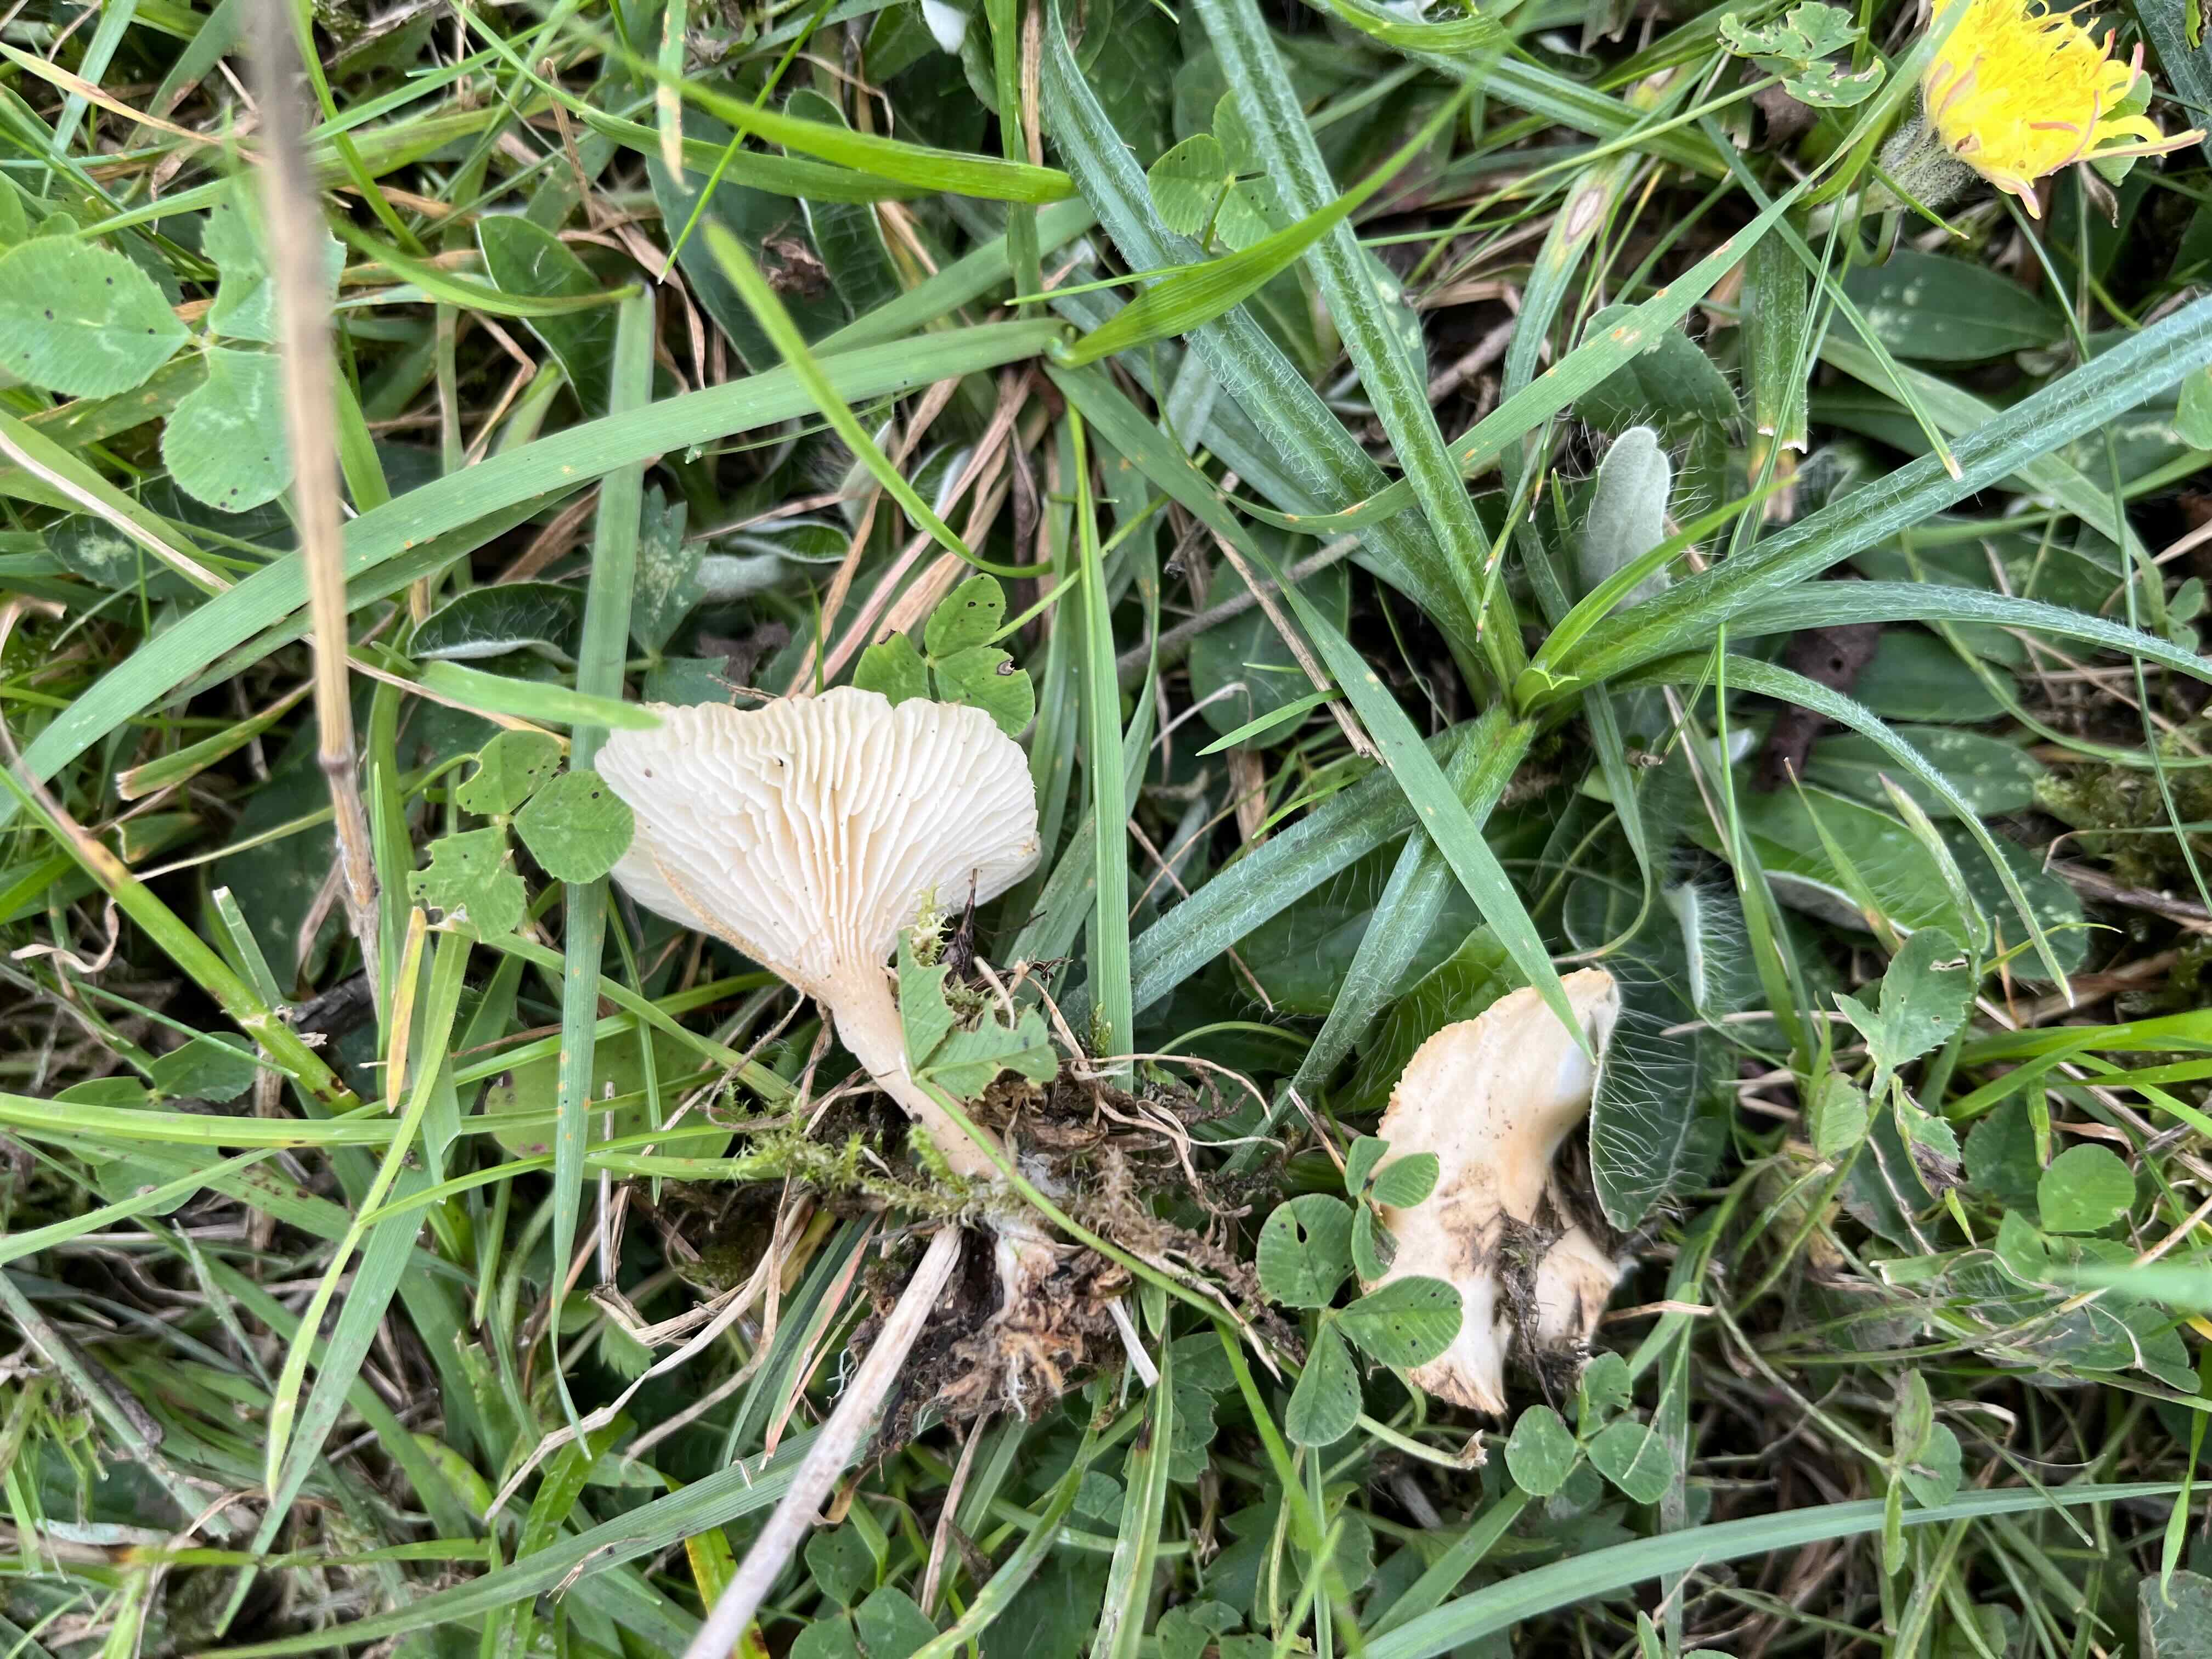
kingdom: Fungi
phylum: Basidiomycota
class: Agaricomycetes
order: Agaricales
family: Tricholomataceae
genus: Clitocybe
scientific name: Clitocybe
